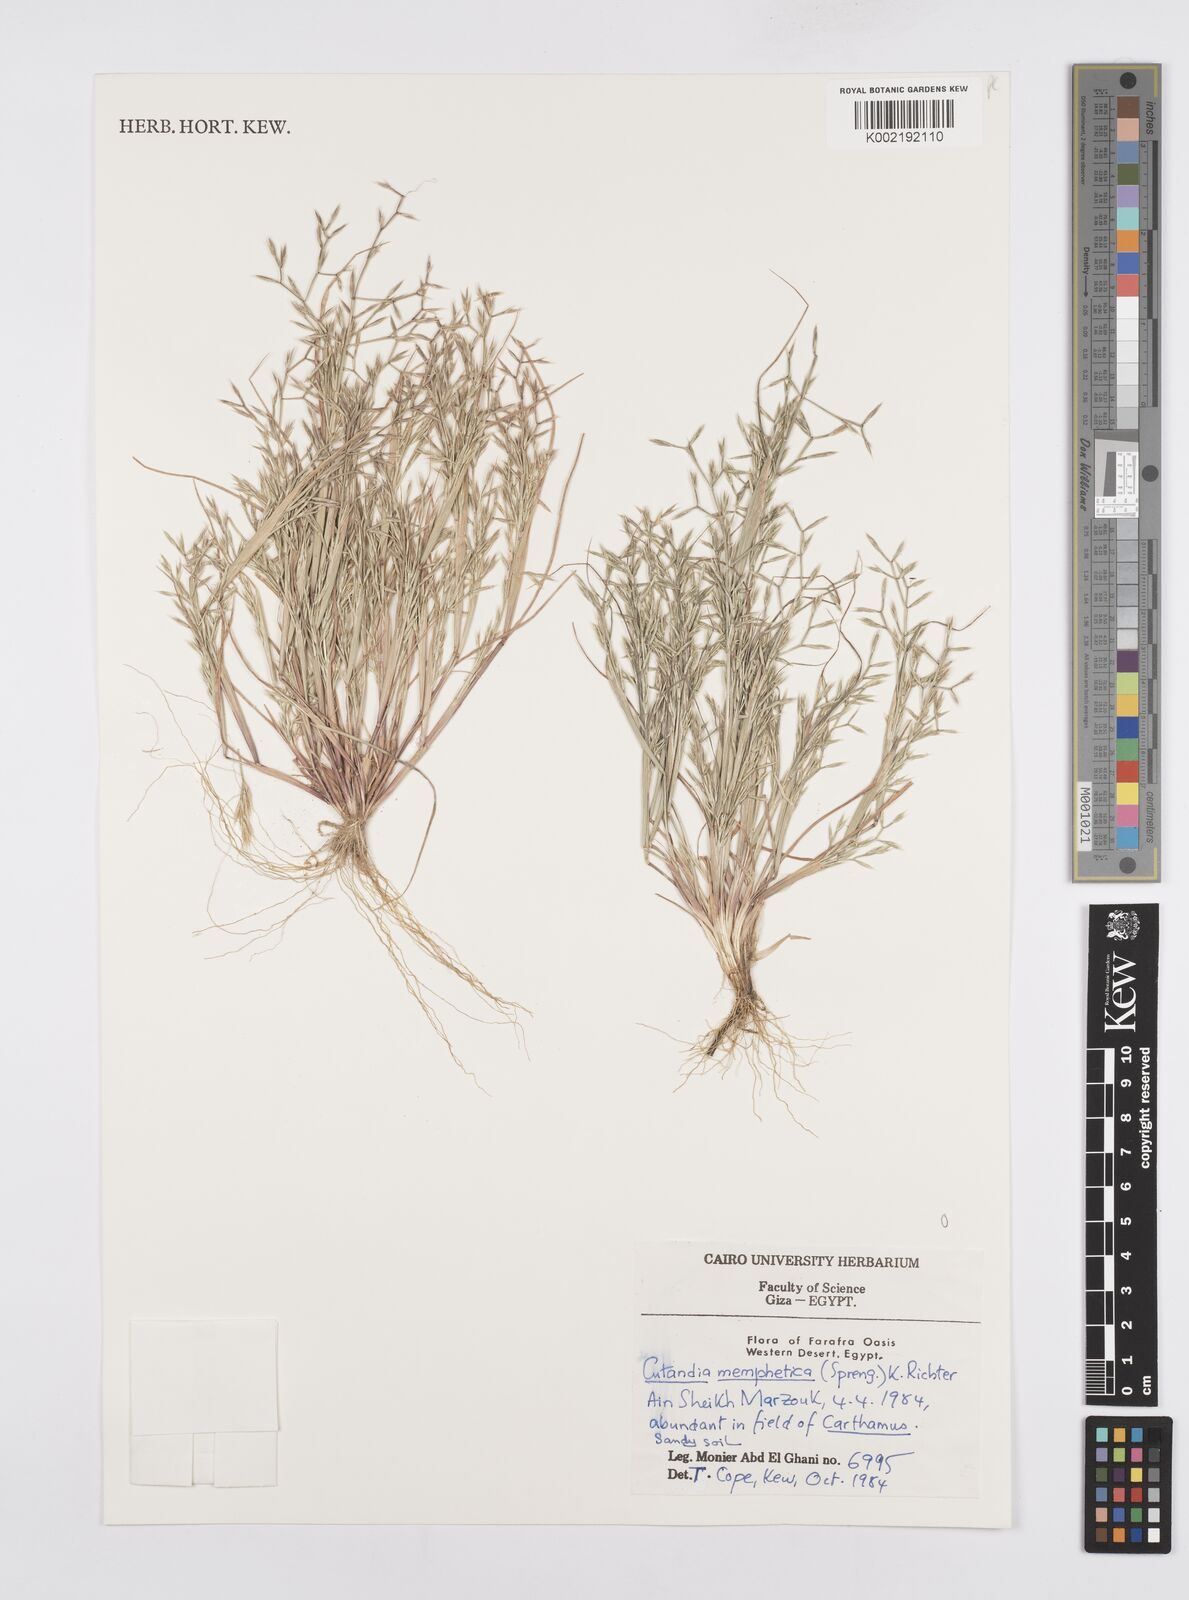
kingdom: Plantae
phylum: Tracheophyta
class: Liliopsida
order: Poales
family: Poaceae
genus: Cutandia
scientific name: Cutandia memphitica
